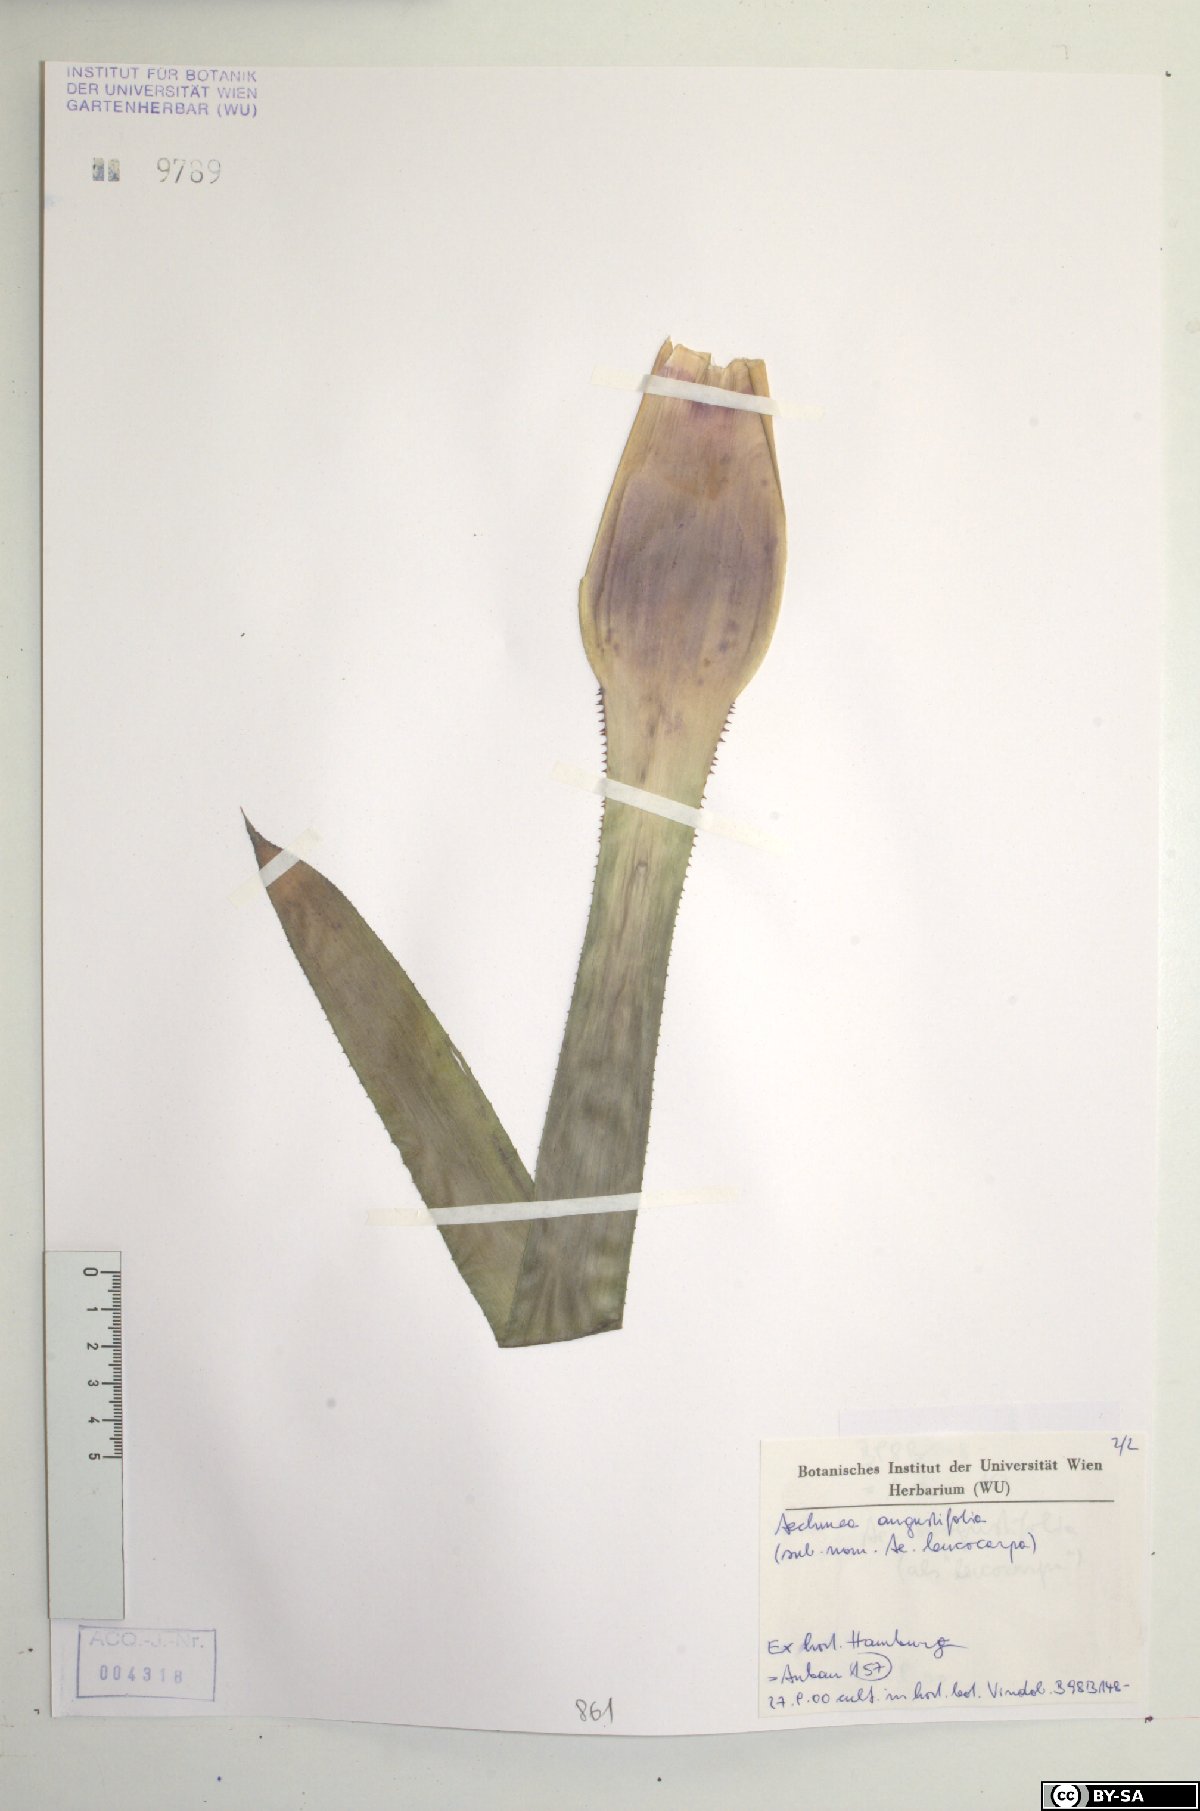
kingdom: Plantae
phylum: Tracheophyta
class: Liliopsida
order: Poales
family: Bromeliaceae
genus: Aechmea
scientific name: Aechmea angustifolia
